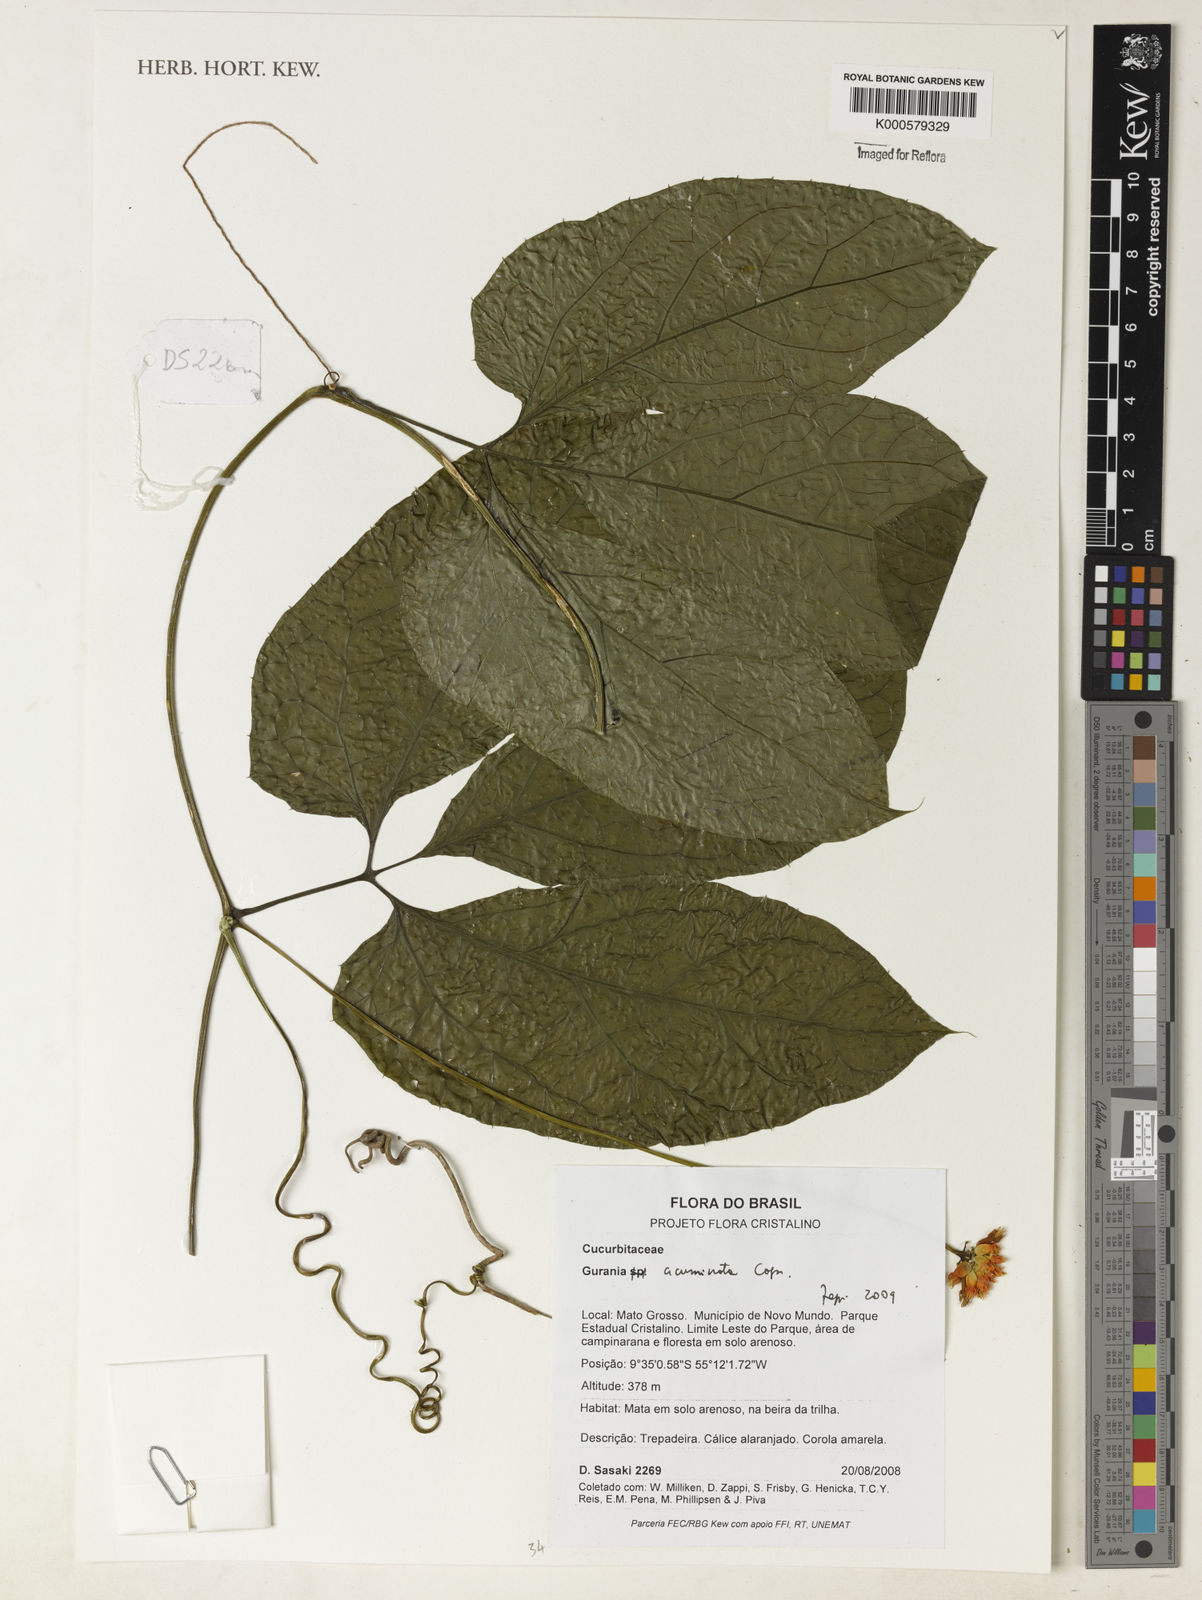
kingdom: Plantae
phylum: Tracheophyta
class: Magnoliopsida
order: Cucurbitales
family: Cucurbitaceae
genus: Gurania
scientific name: Gurania acuminata
